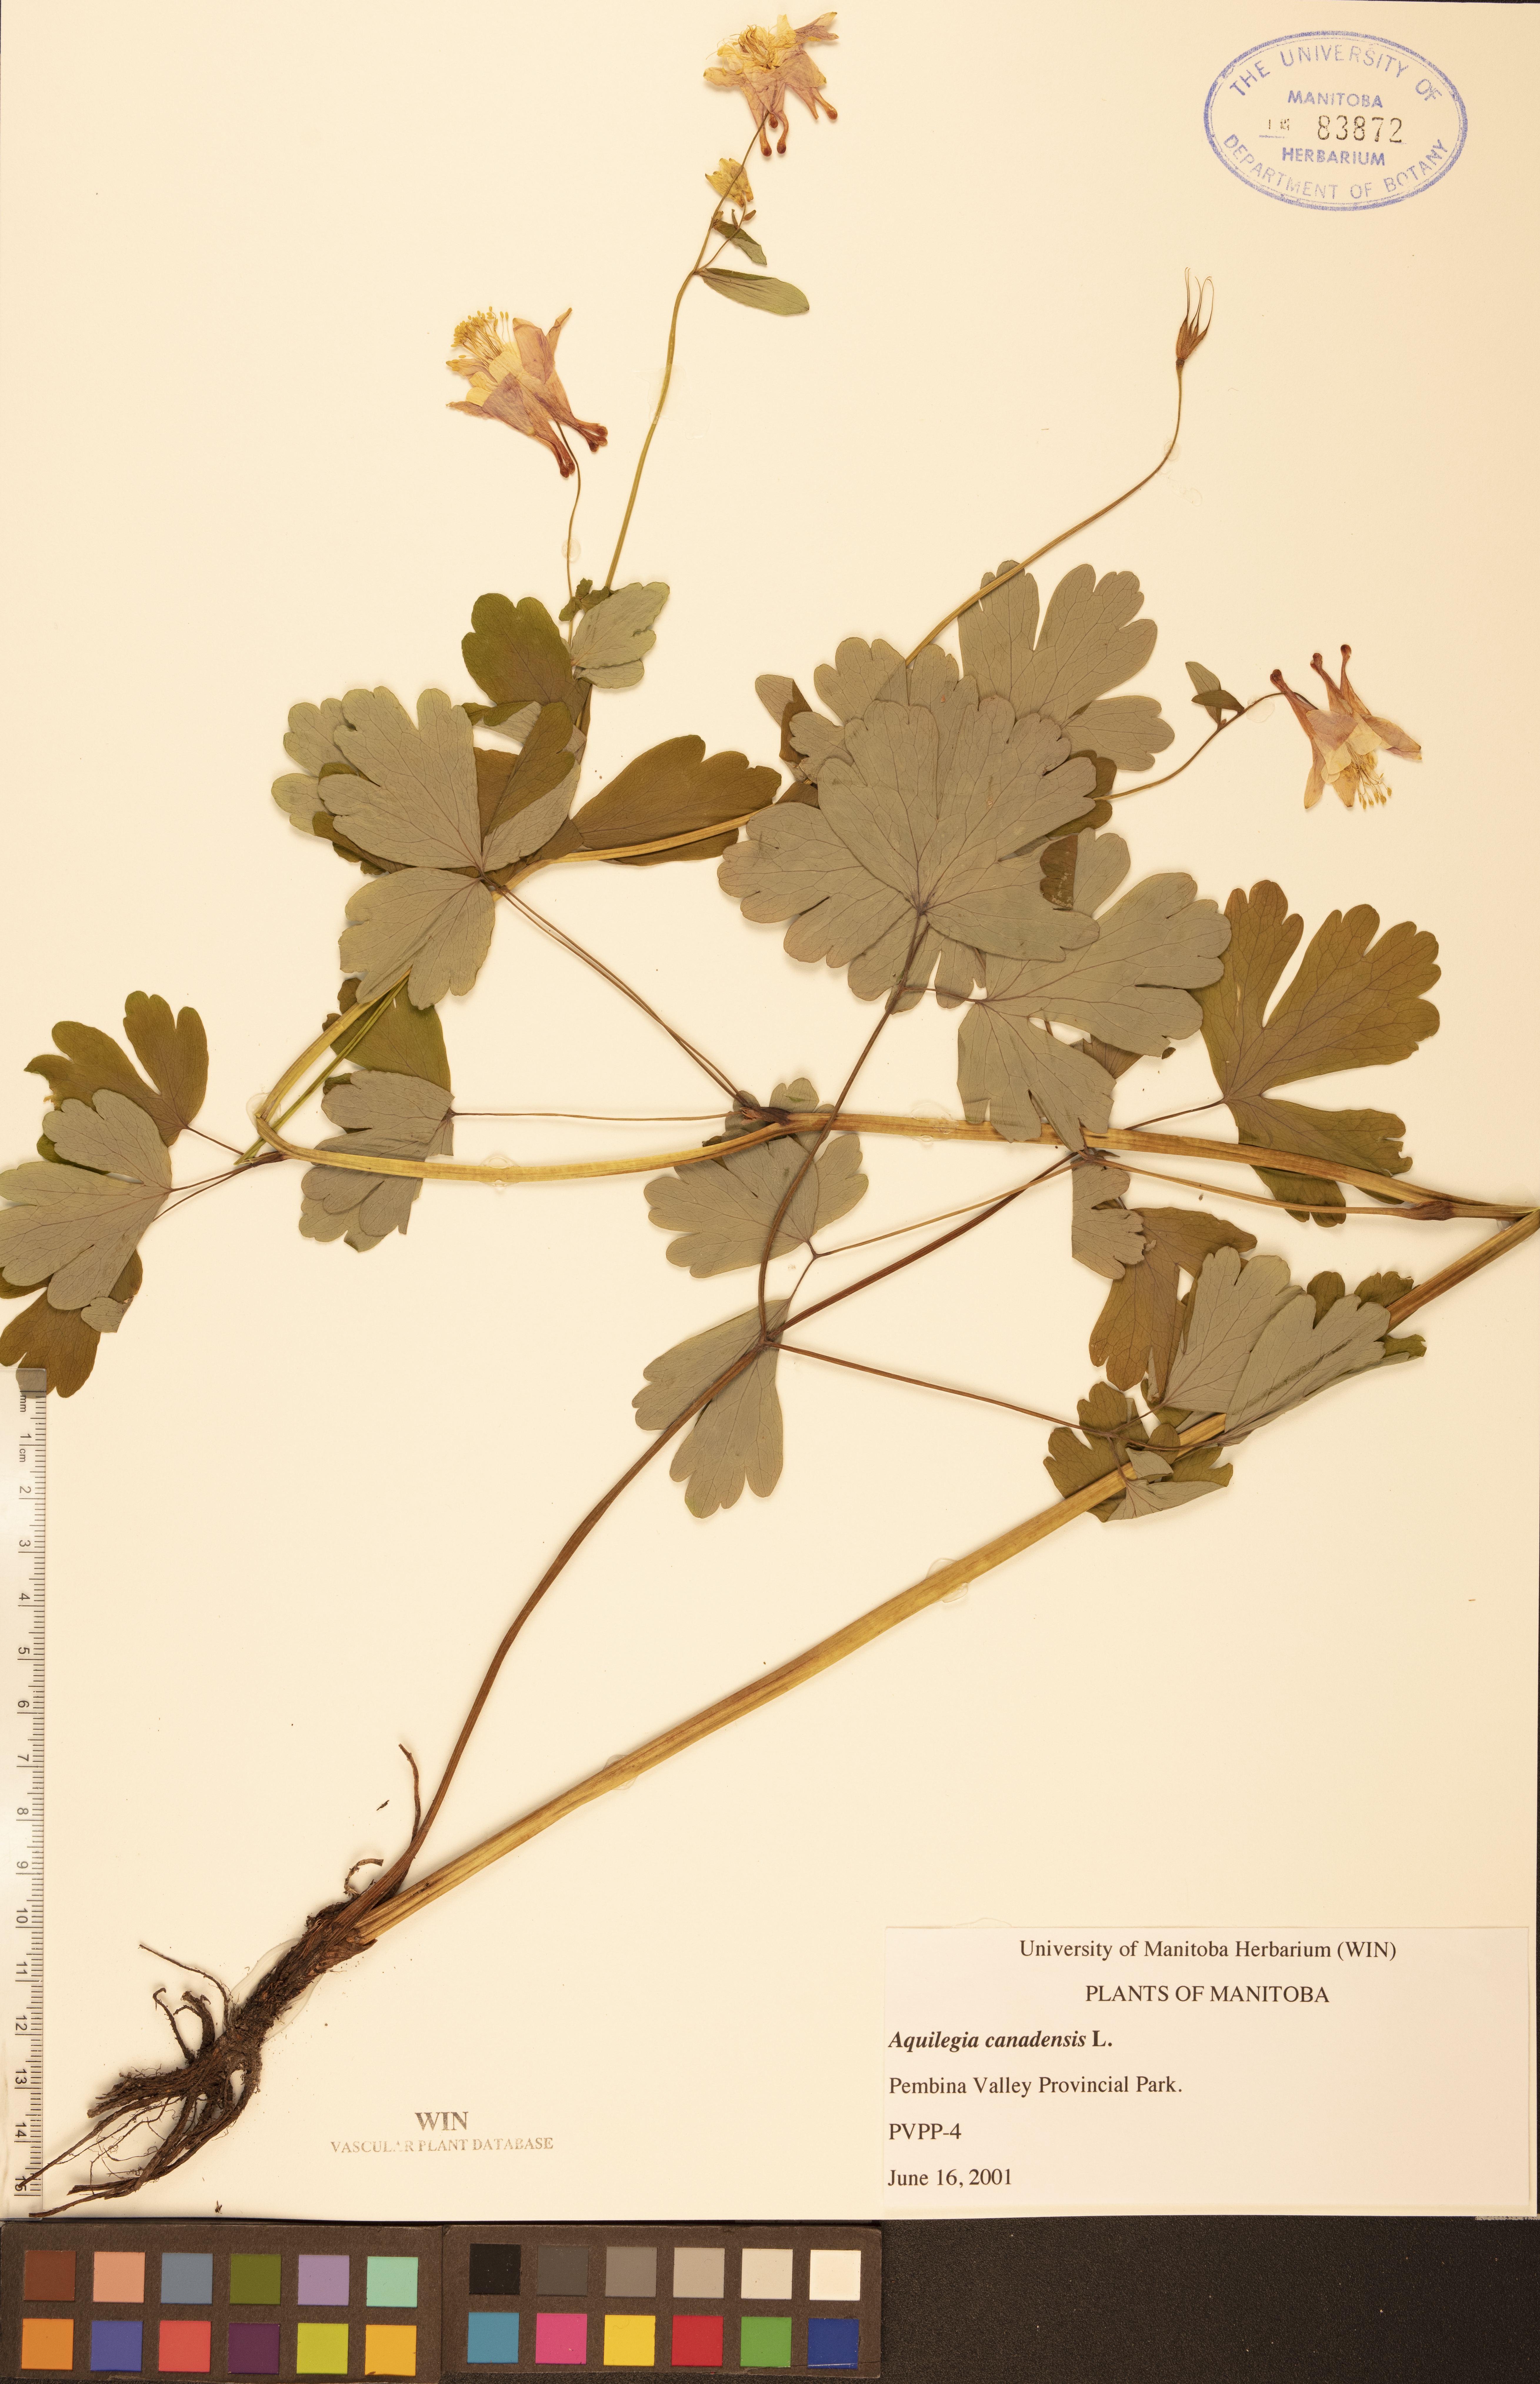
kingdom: Plantae
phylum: Tracheophyta
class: Magnoliopsida
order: Ranunculales
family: Ranunculaceae
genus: Aquilegia
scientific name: Aquilegia canadensis
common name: American columbine
